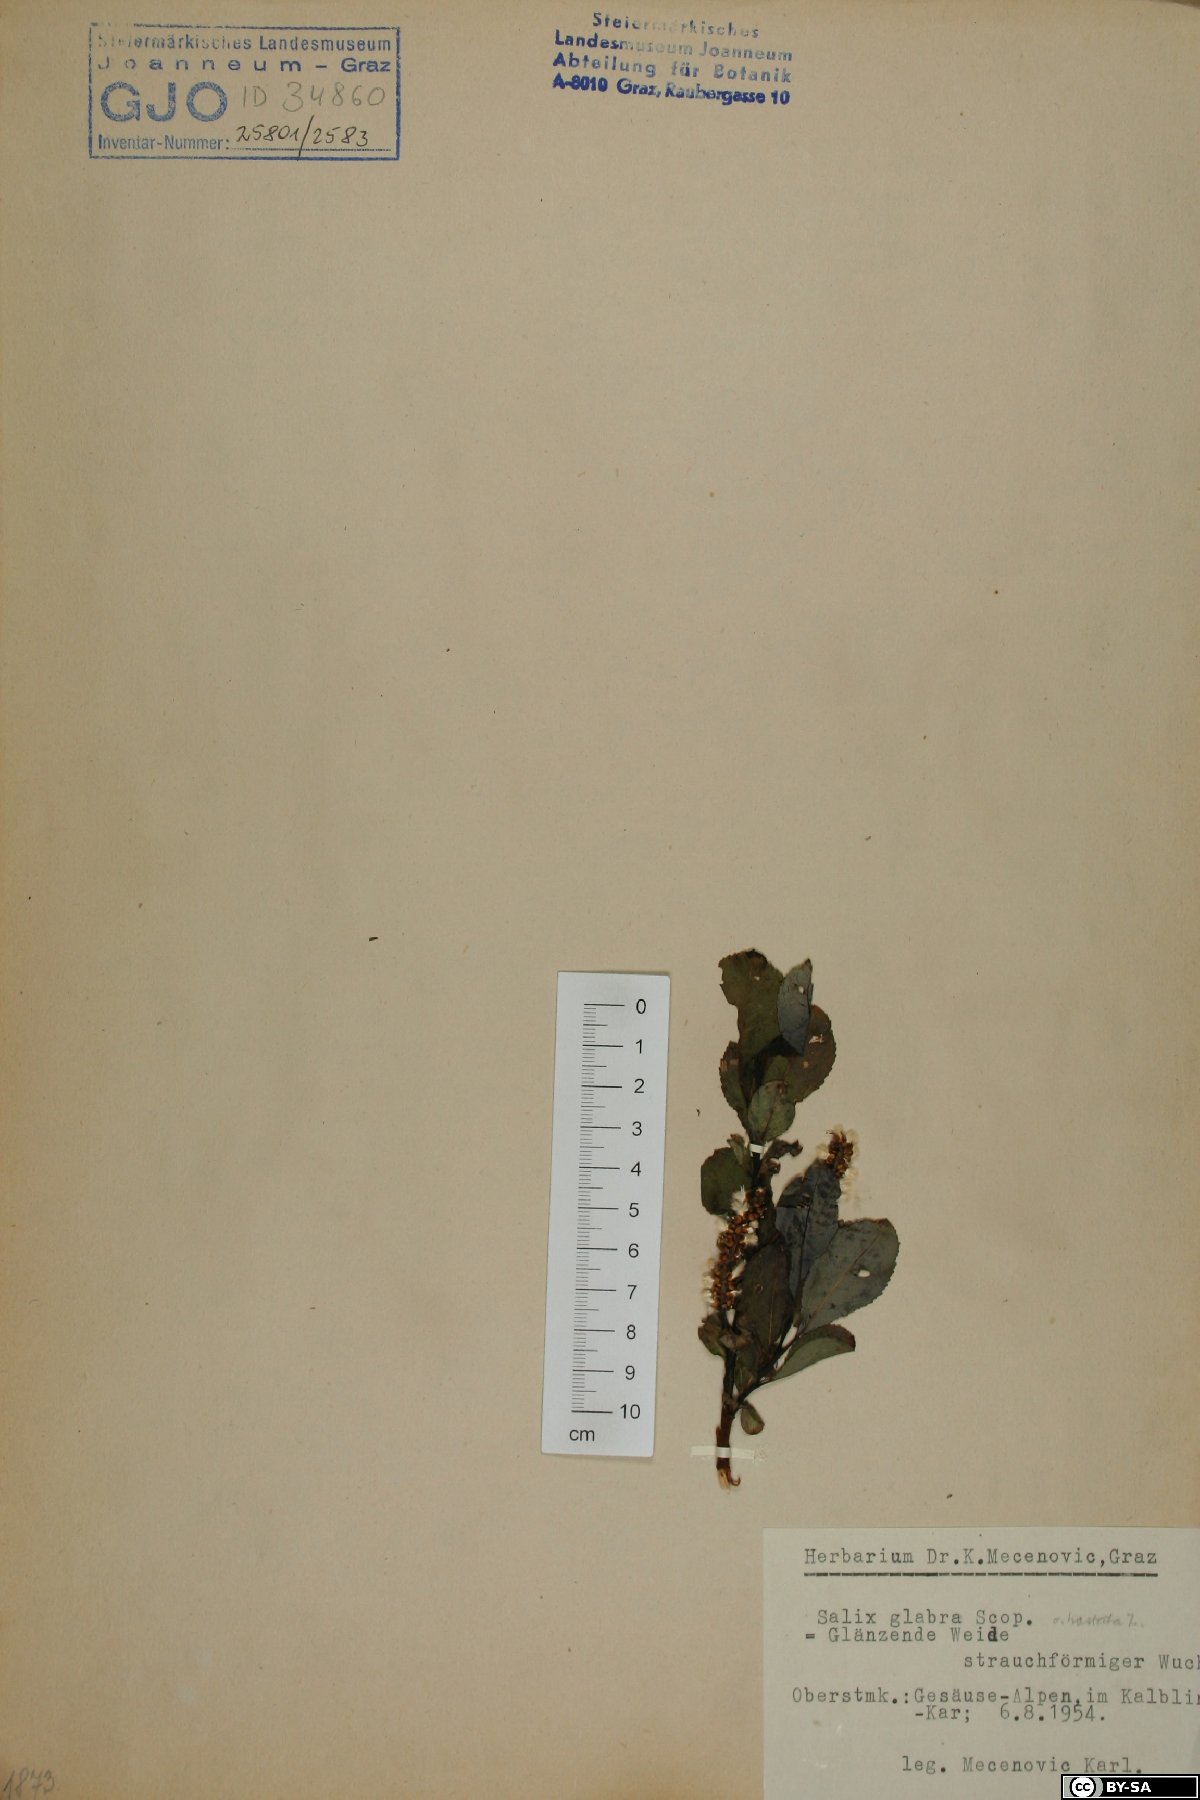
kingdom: Plantae
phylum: Tracheophyta
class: Magnoliopsida
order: Malpighiales
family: Salicaceae
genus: Salix
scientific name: Salix glabra
